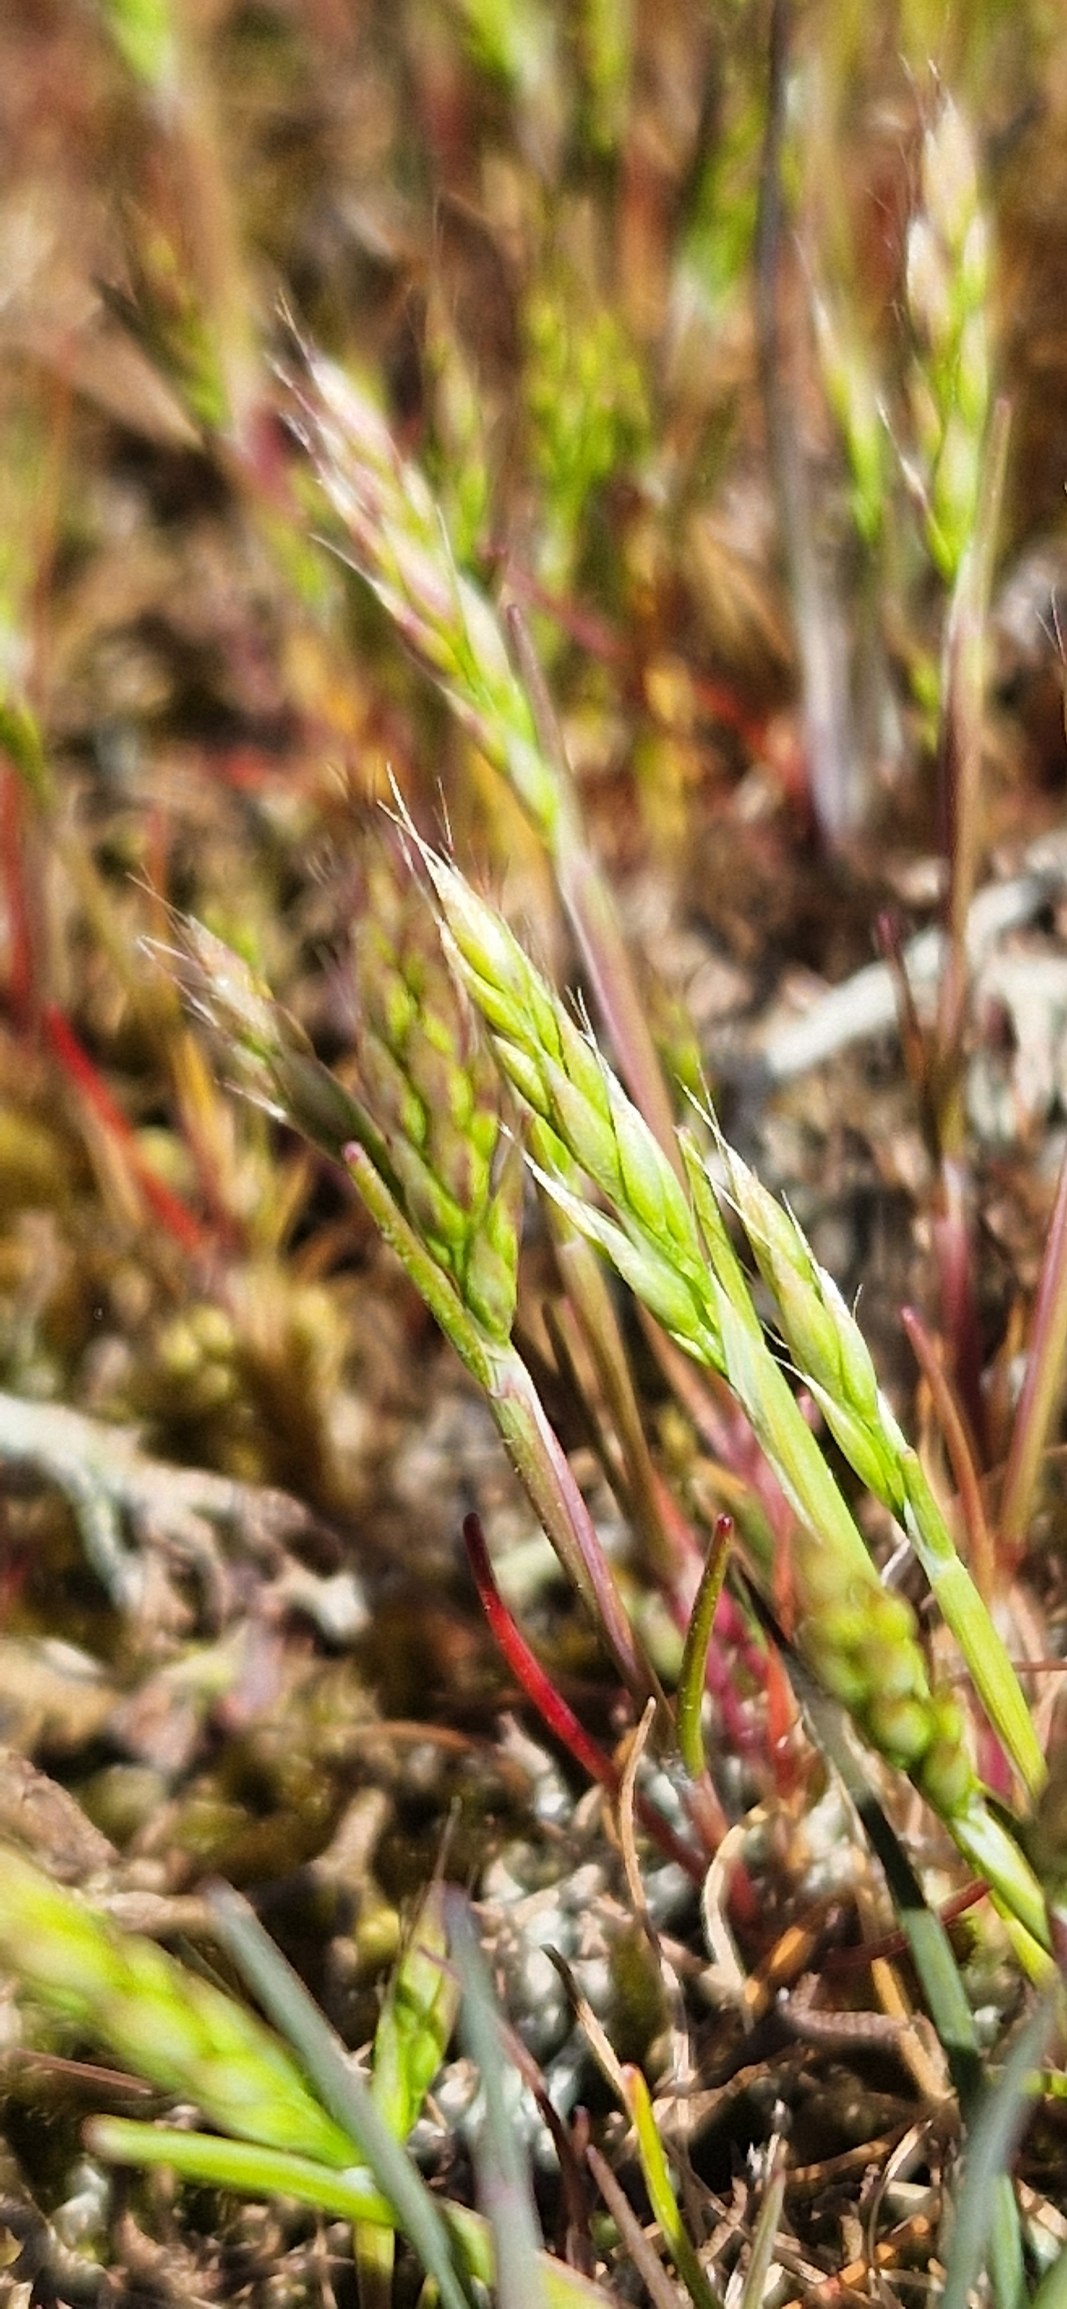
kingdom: Plantae
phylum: Tracheophyta
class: Liliopsida
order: Poales
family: Poaceae
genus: Aira
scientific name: Aira praecox
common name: Tidlig dværgbunke
